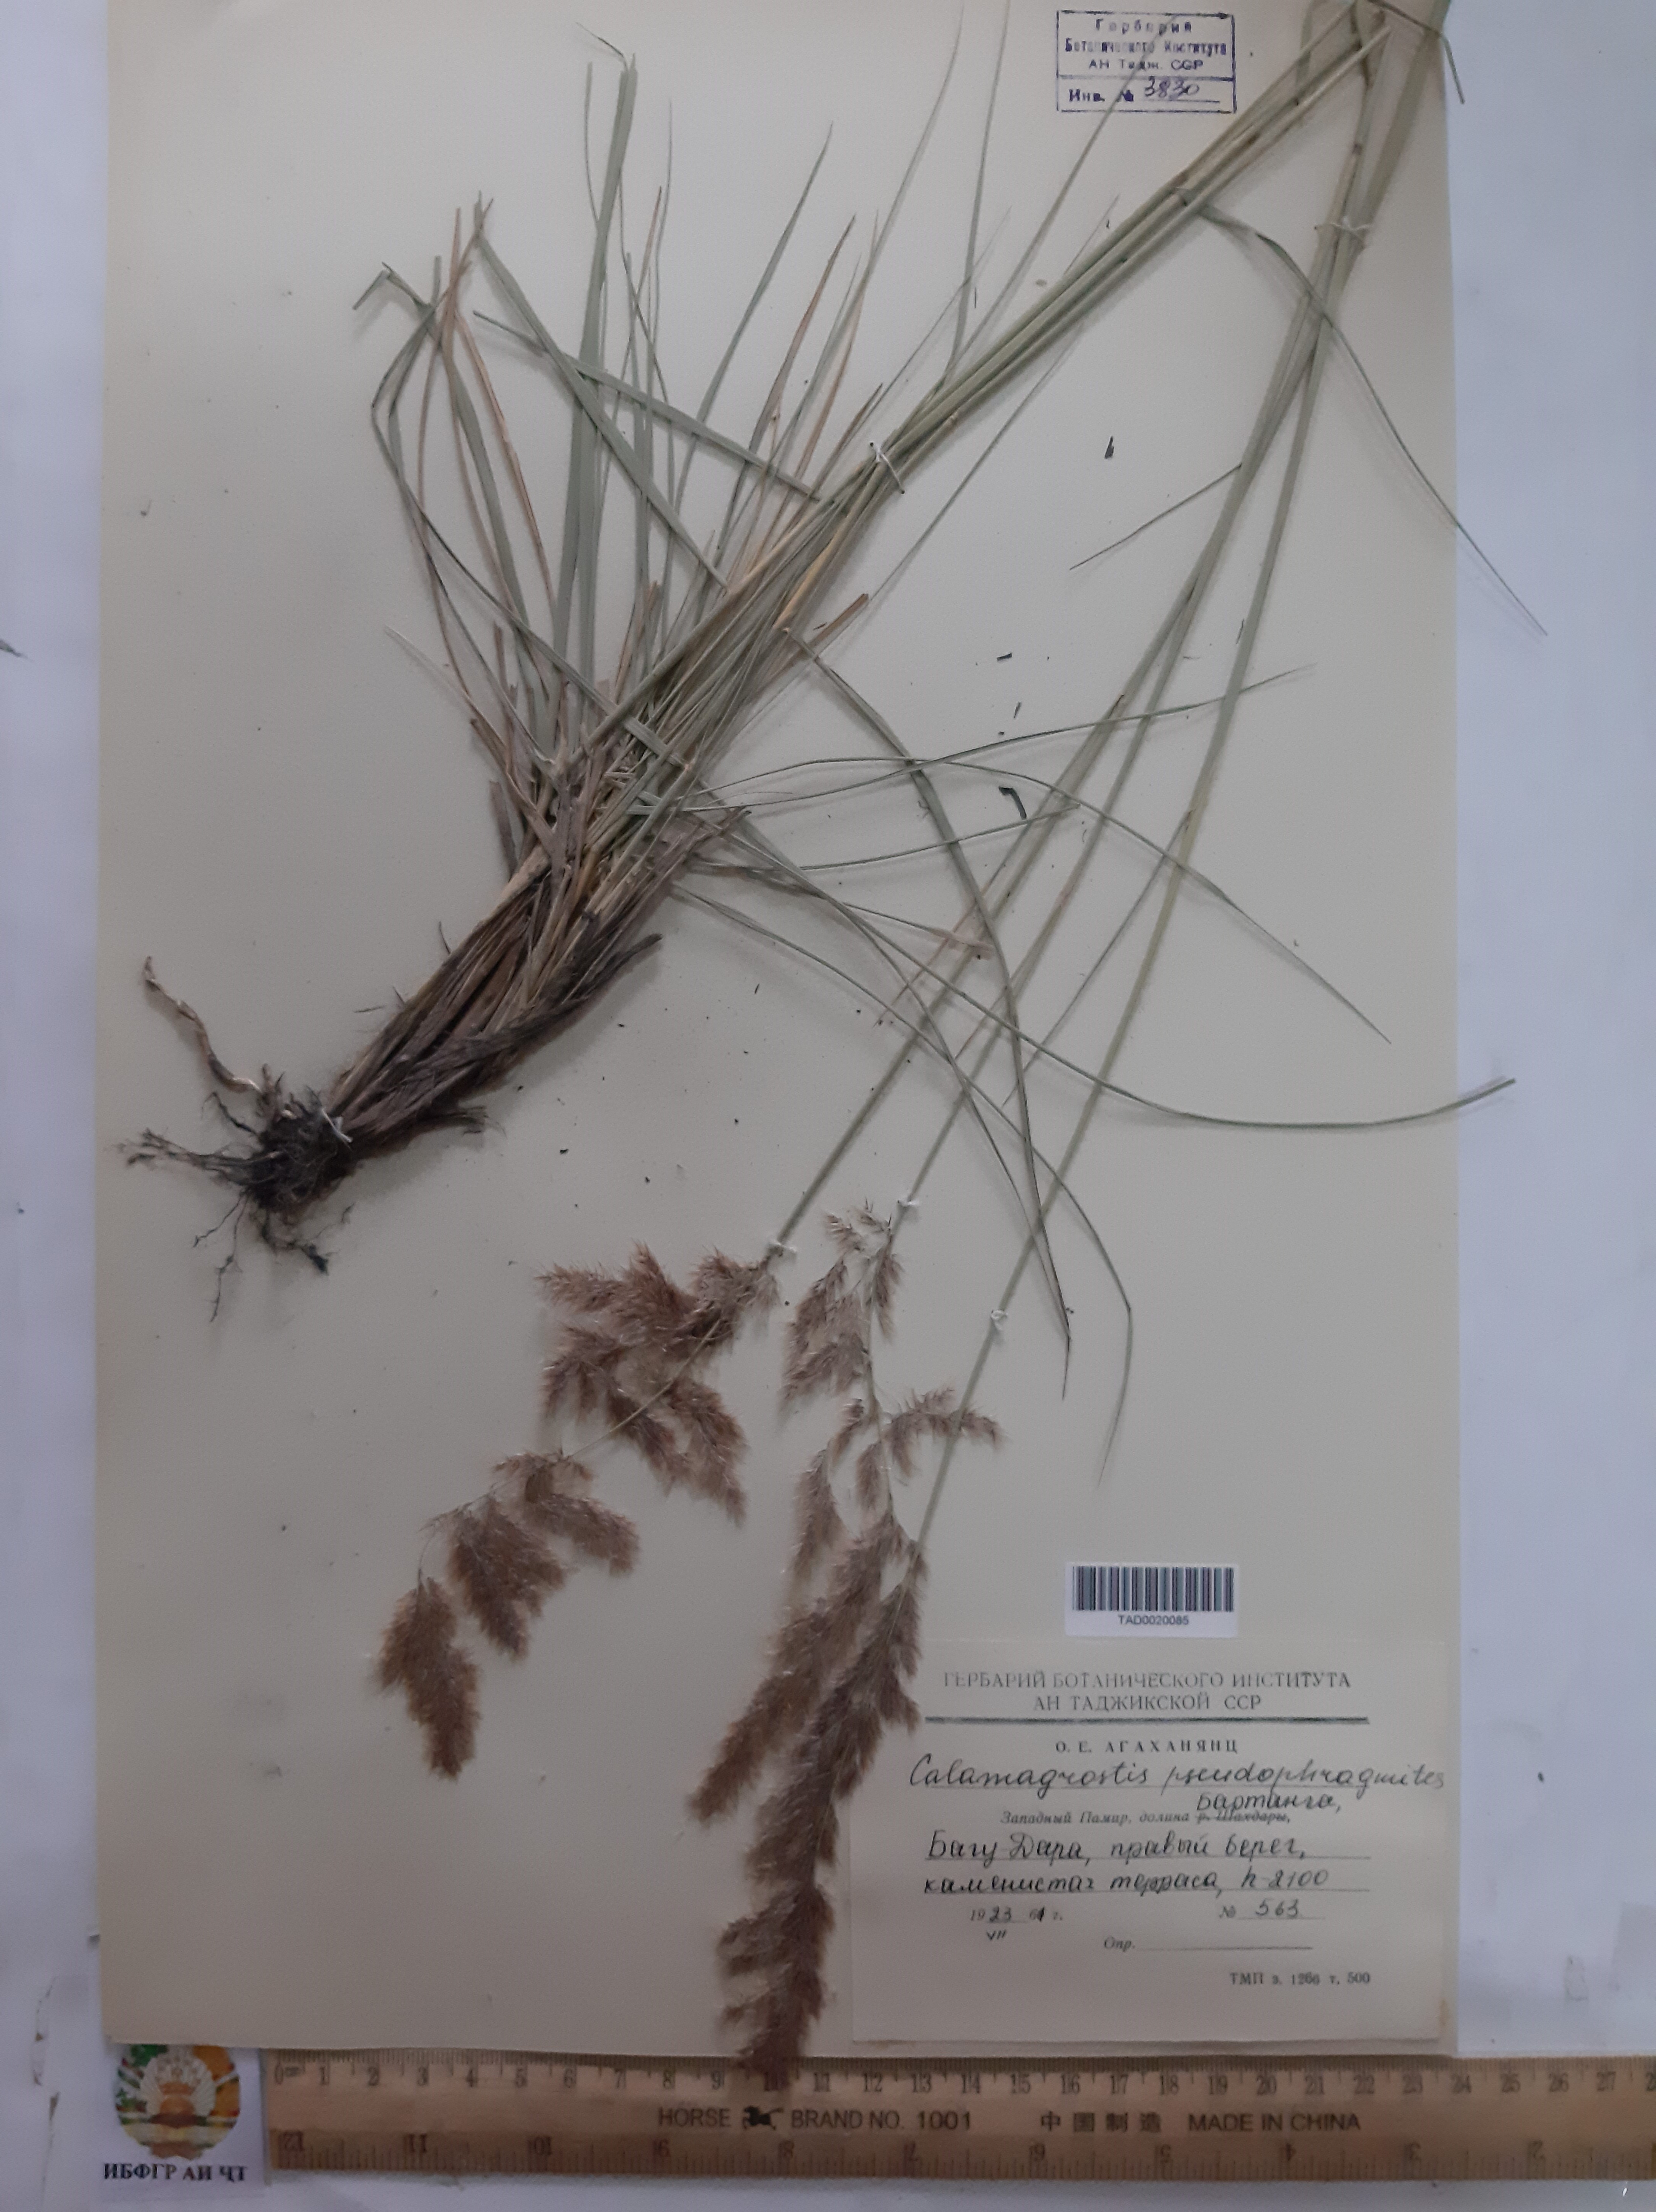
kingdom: Plantae
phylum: Tracheophyta
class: Liliopsida
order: Poales
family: Poaceae
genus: Calamagrostis
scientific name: Calamagrostis pseudophragmites
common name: Coastal small-reed
